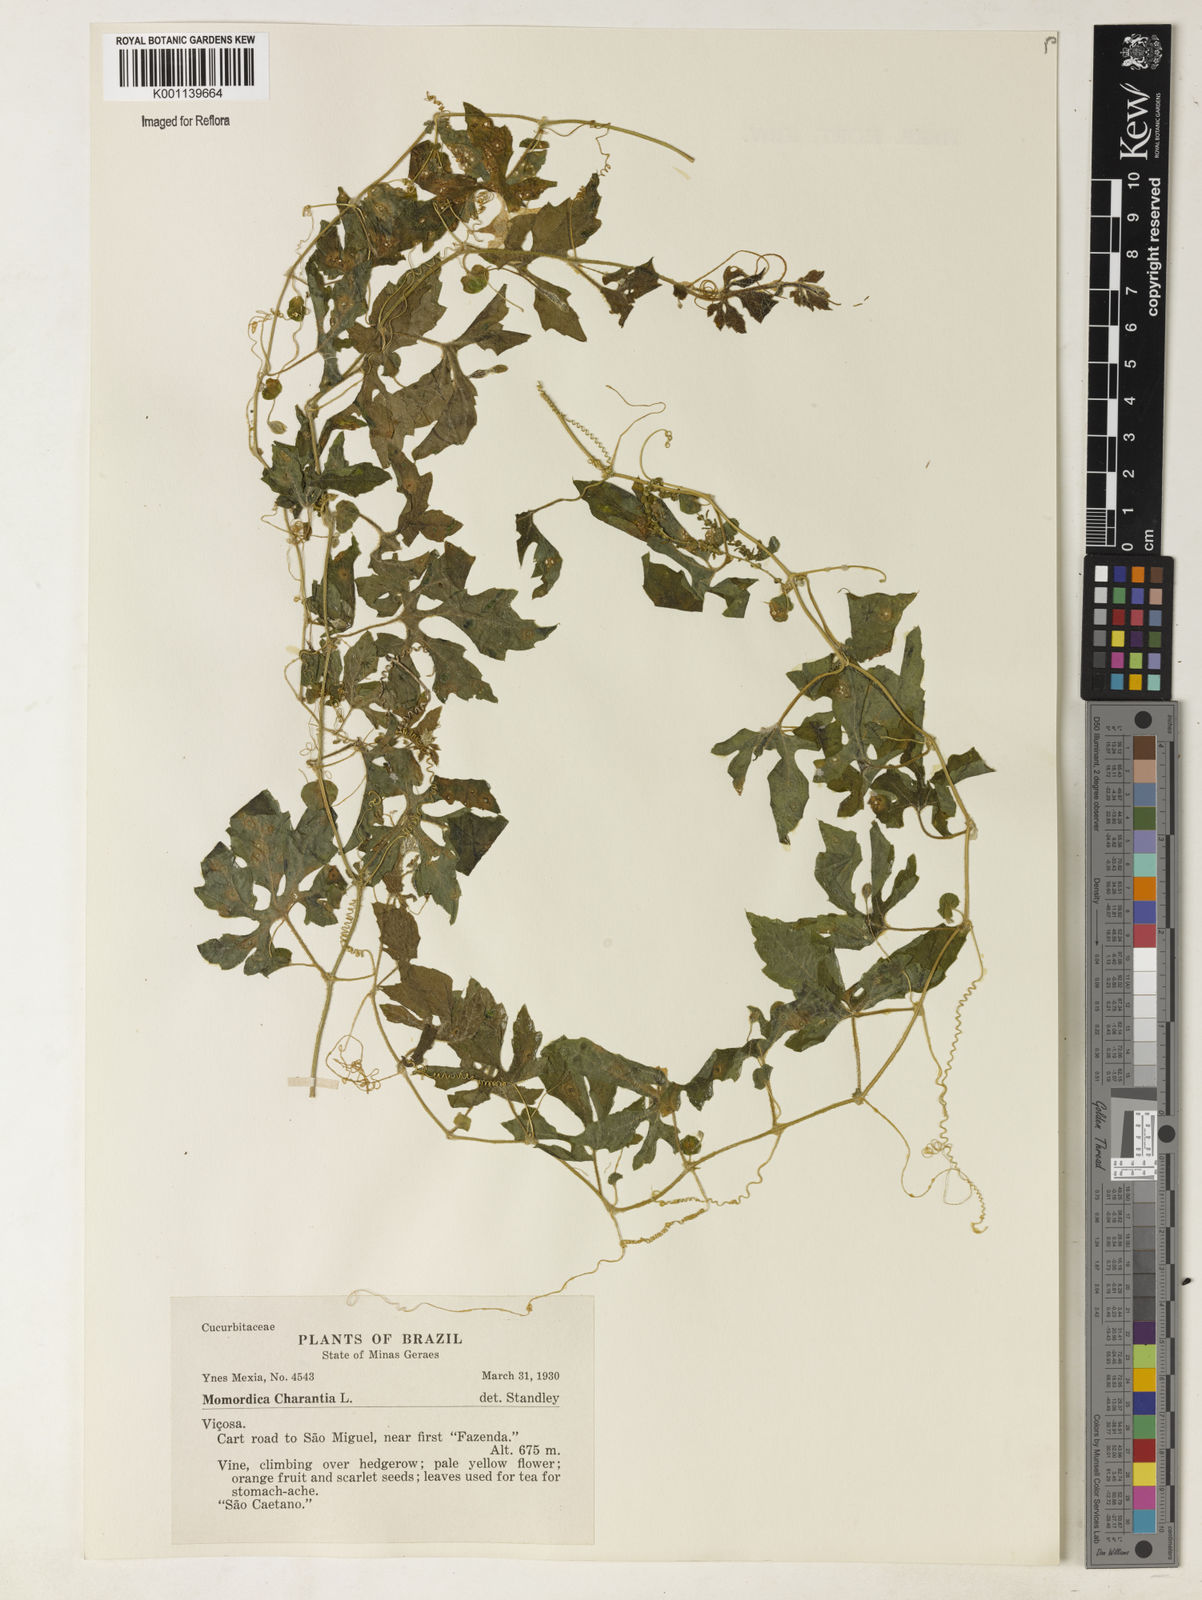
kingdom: Plantae
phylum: Tracheophyta
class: Magnoliopsida
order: Cucurbitales
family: Cucurbitaceae
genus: Momordica
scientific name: Momordica charantia
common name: Balsampear
